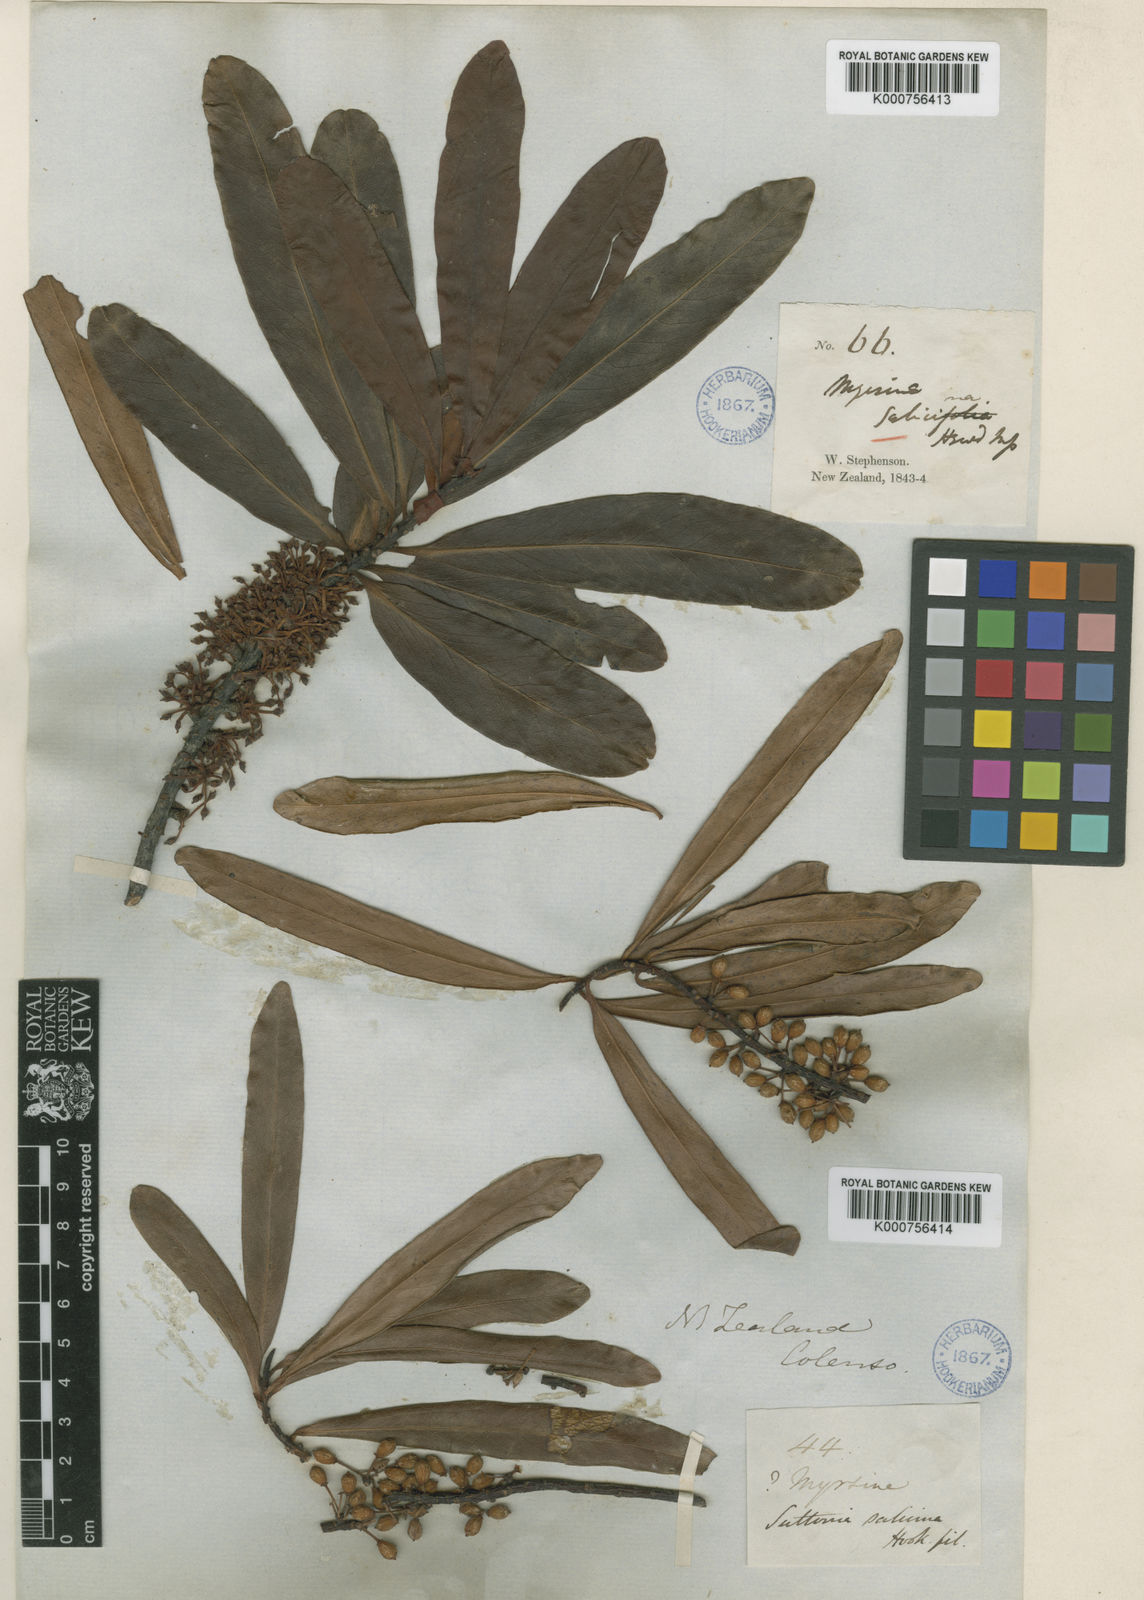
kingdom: Plantae
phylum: Tracheophyta
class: Magnoliopsida
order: Ericales
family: Primulaceae
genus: Myrsine
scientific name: Myrsine salicina
